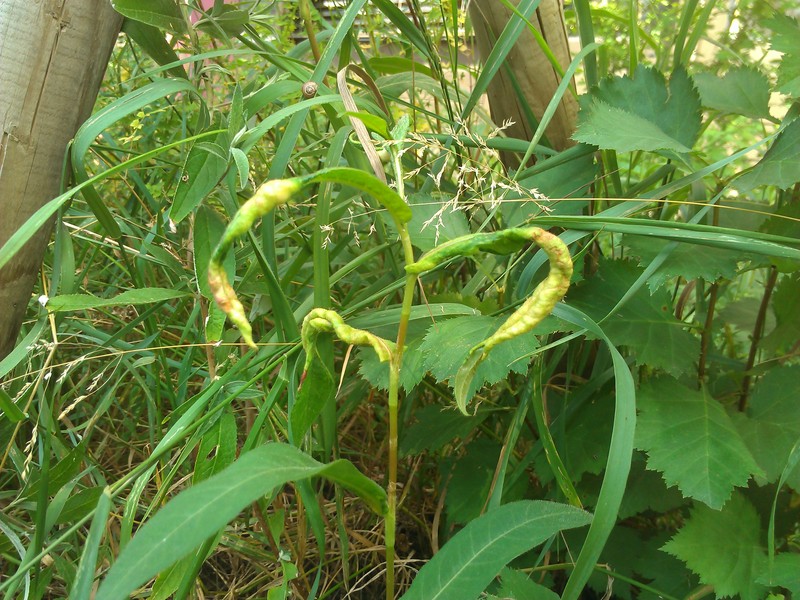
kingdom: Animalia
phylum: Arthropoda
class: Insecta
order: Diptera
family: Cecidomyiidae
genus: Wachtliella
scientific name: Wachtliella persicariae
